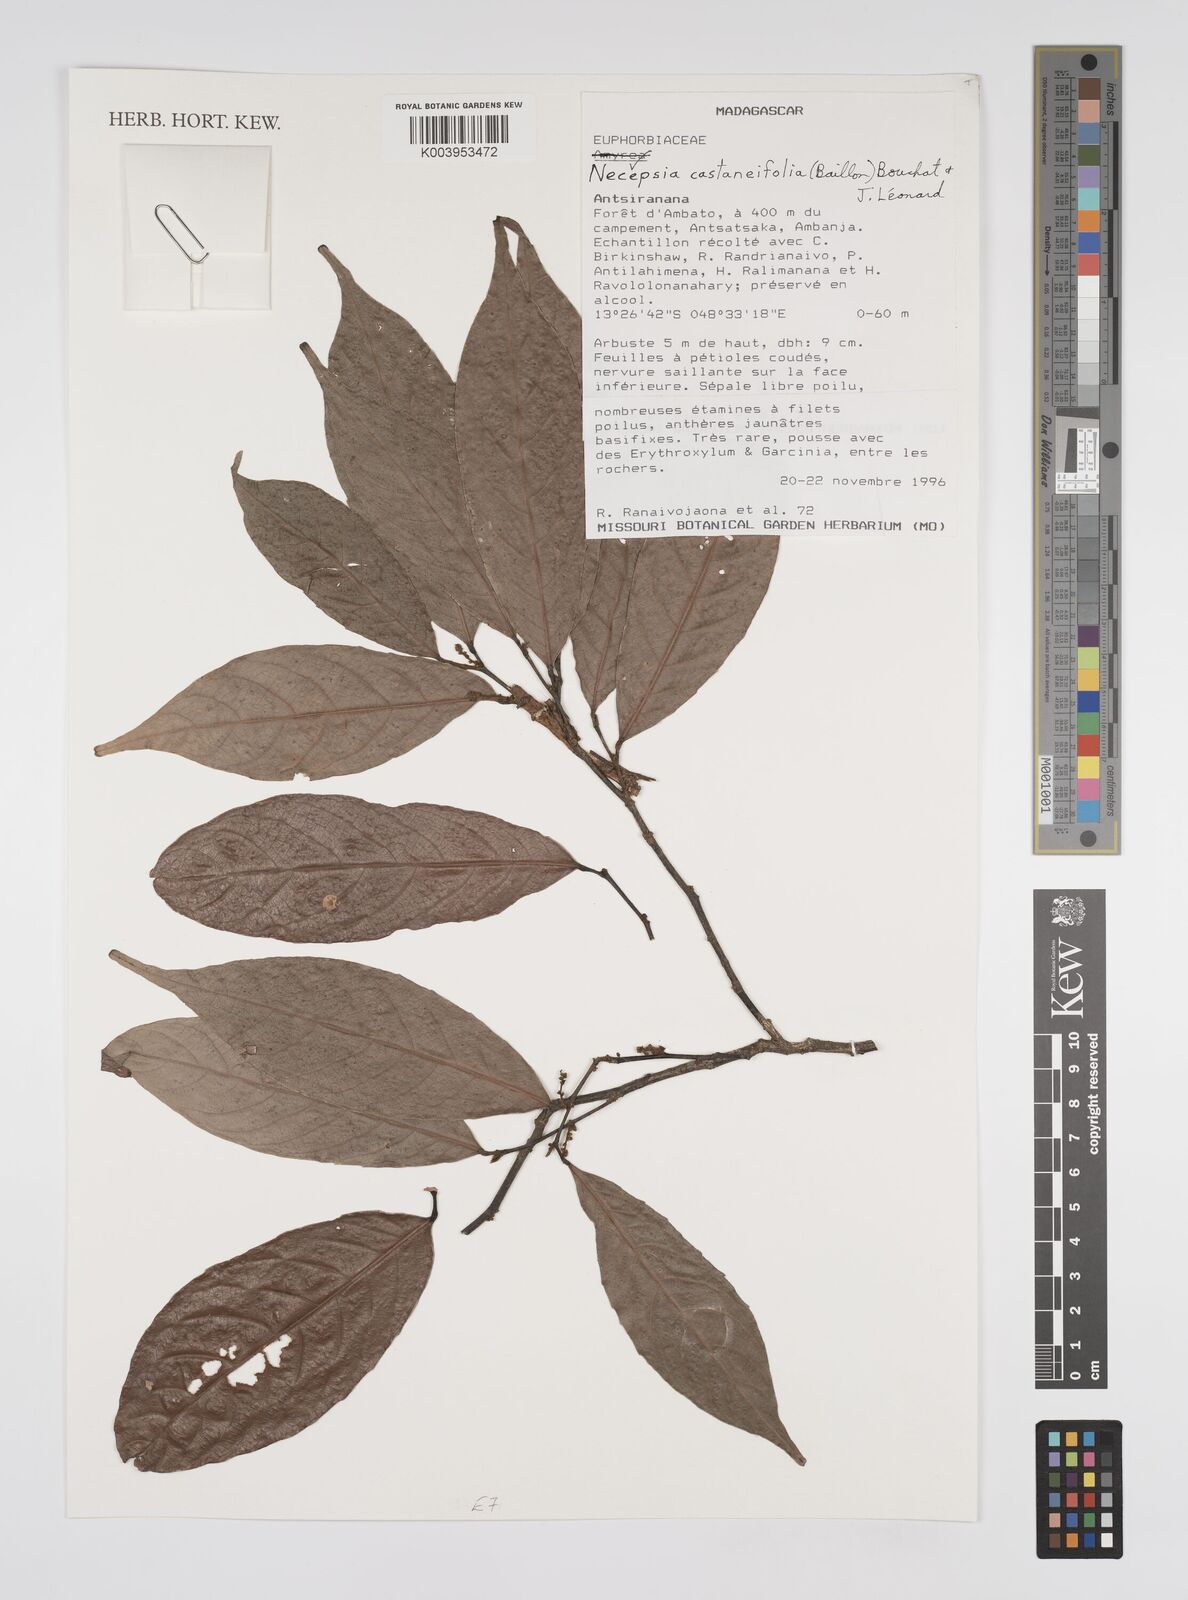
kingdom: Plantae
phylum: Tracheophyta
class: Magnoliopsida
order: Malpighiales
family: Euphorbiaceae
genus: Necepsia
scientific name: Necepsia castaneifolia
